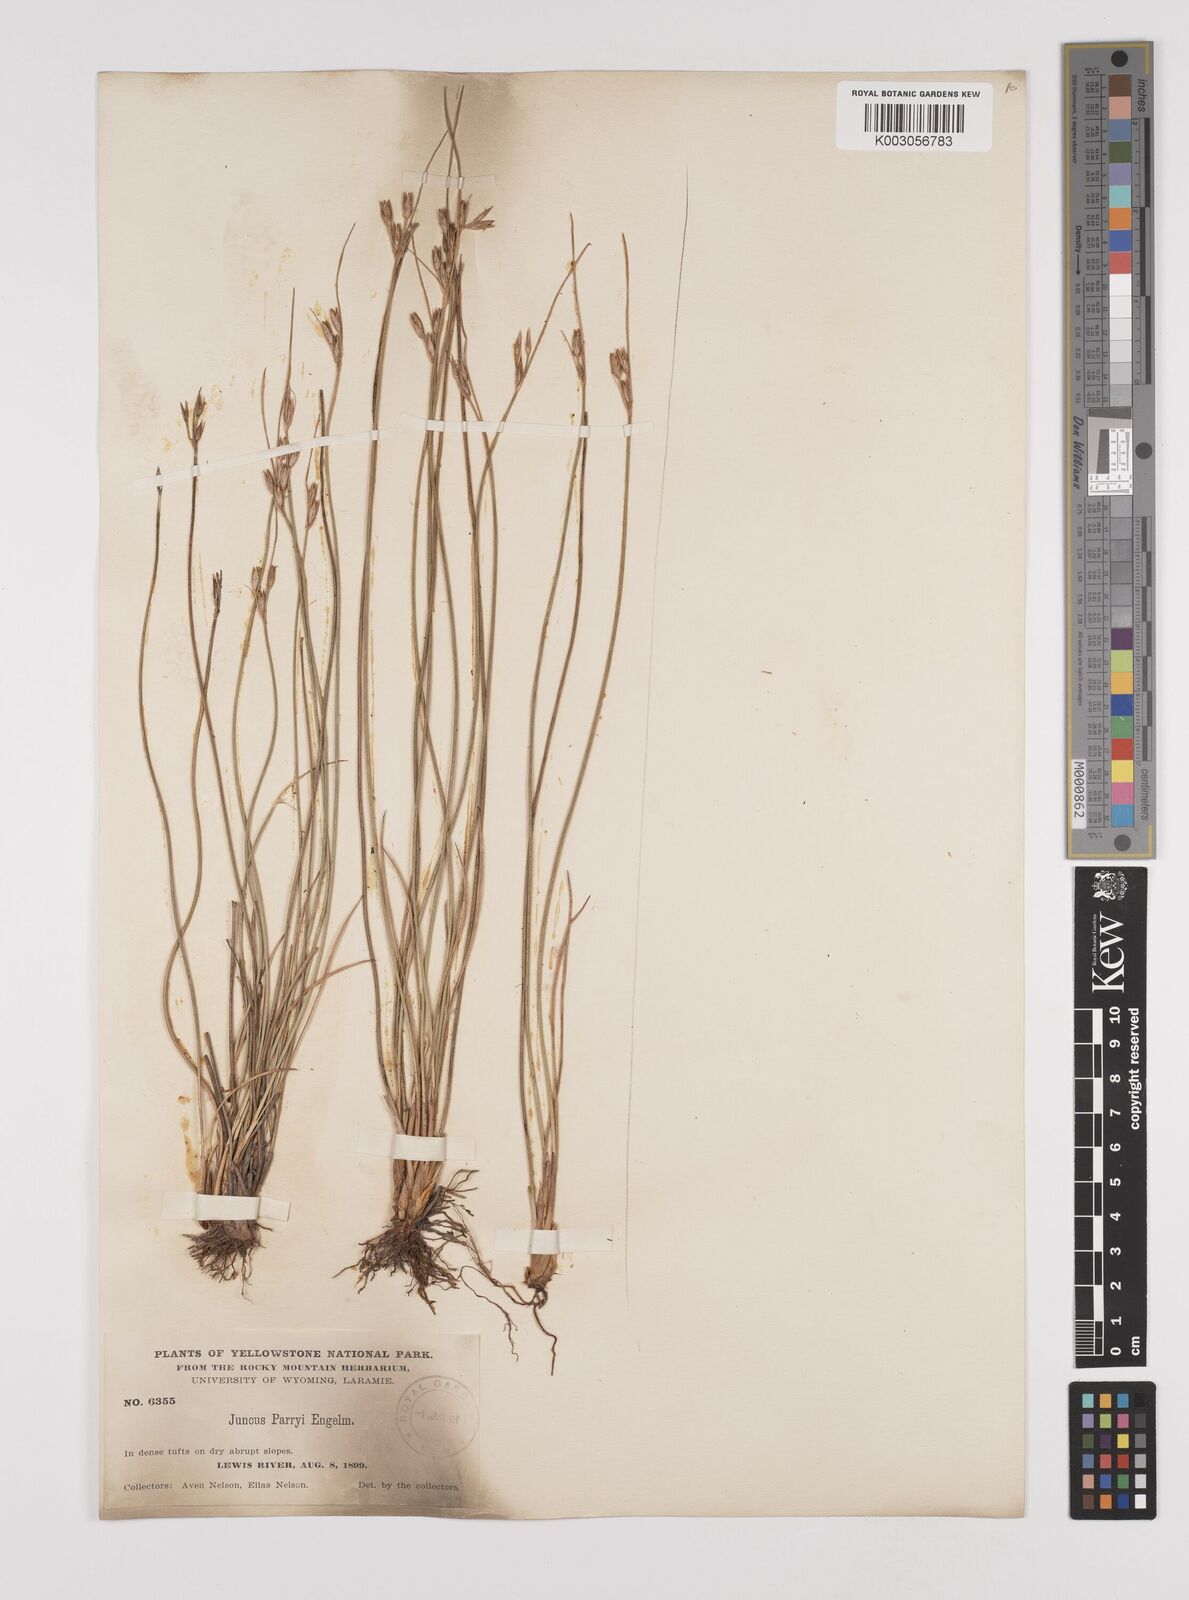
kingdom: Plantae
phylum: Tracheophyta
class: Liliopsida
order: Poales
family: Juncaceae
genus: Juncus
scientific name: Juncus parryi
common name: Parry's rush
